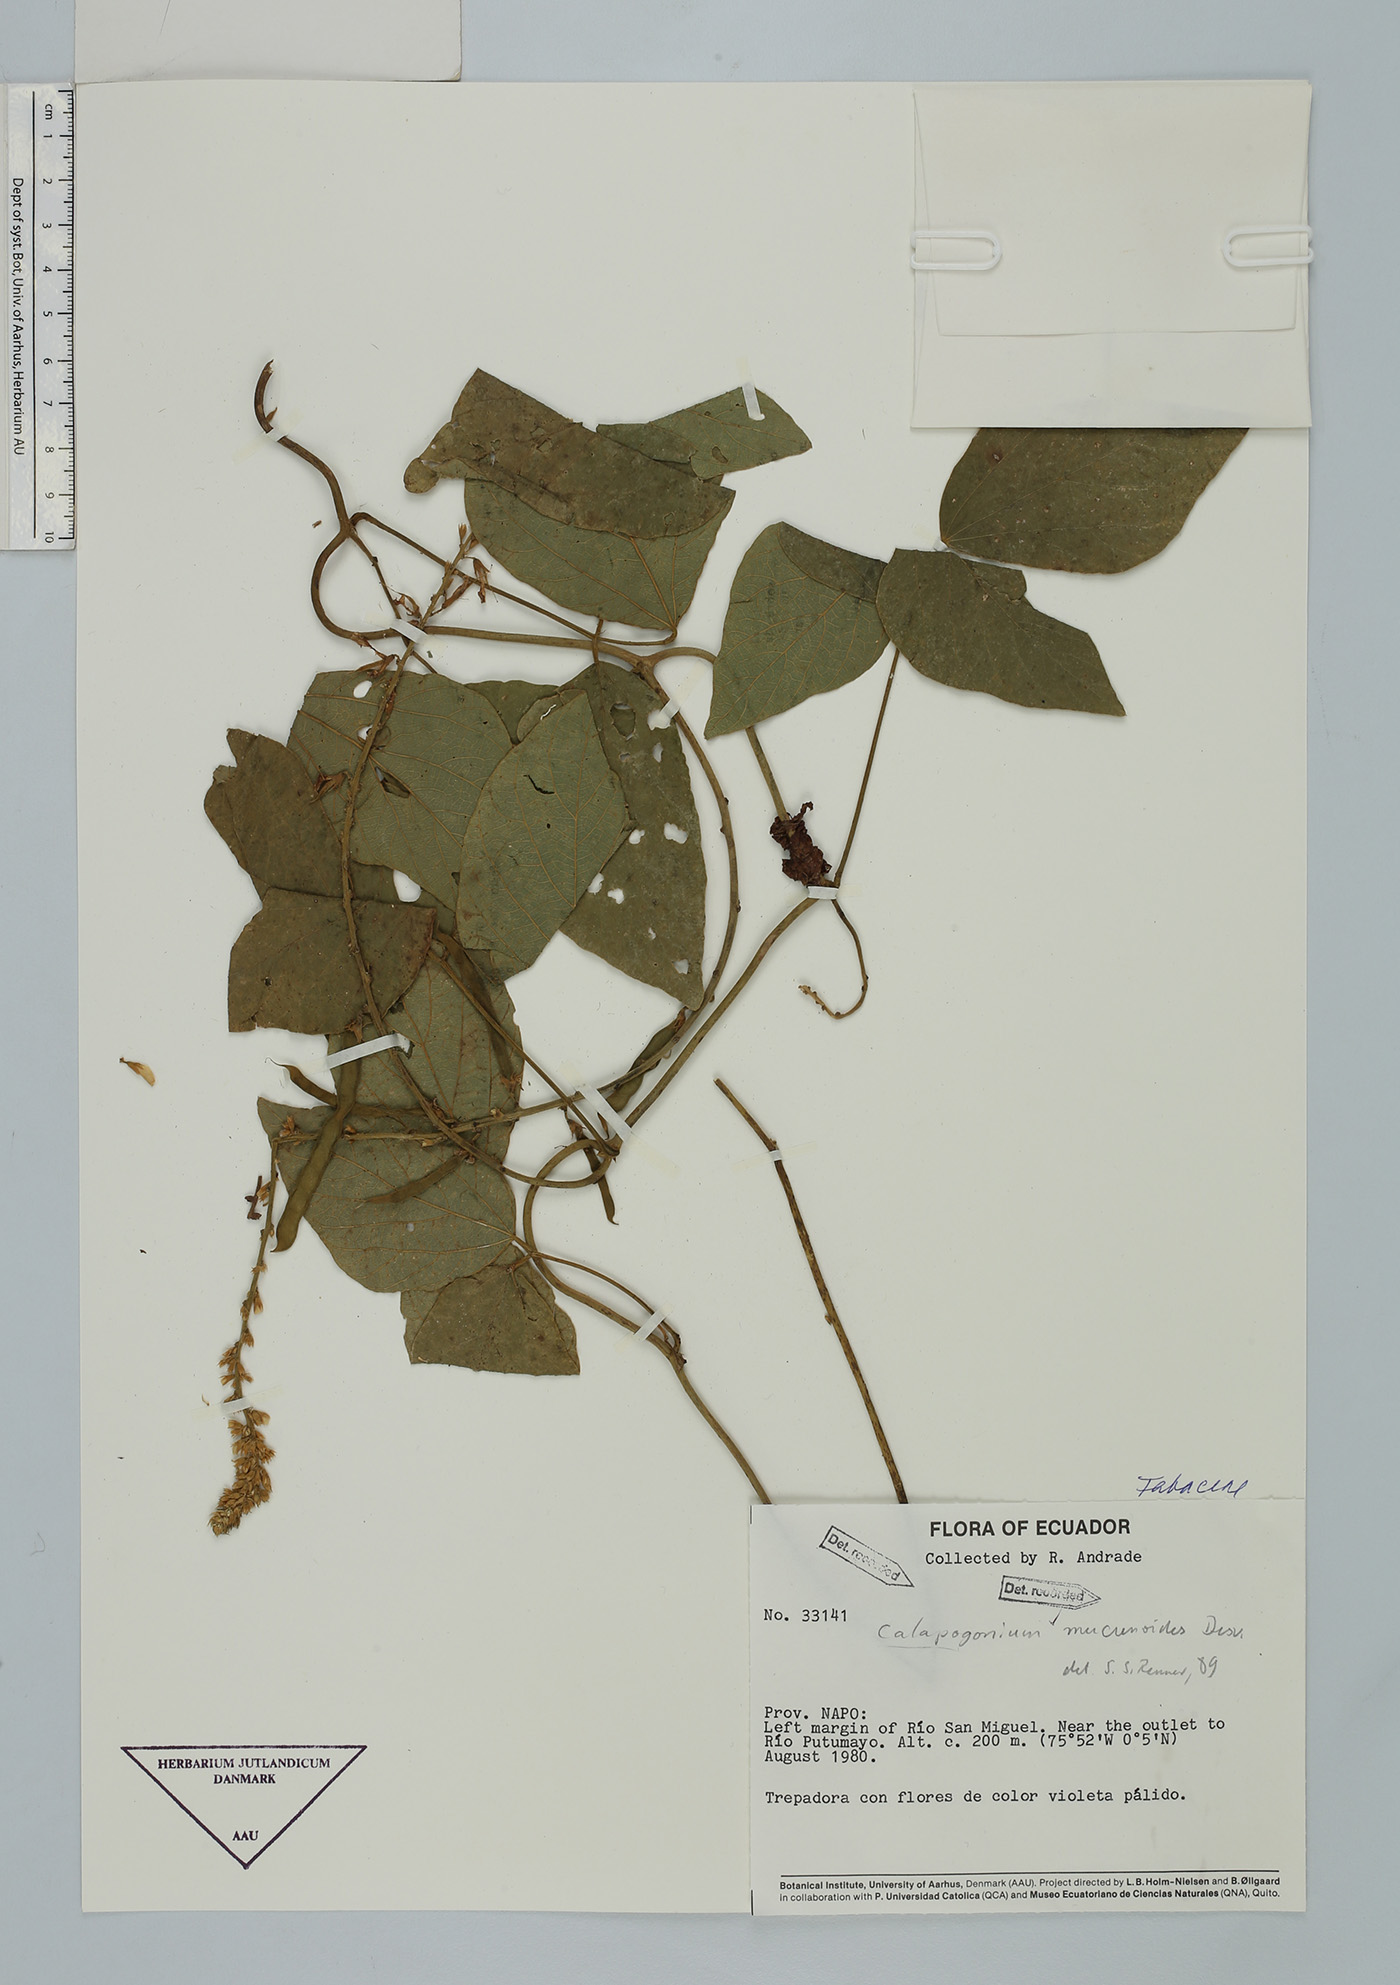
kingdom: Plantae
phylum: Tracheophyta
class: Magnoliopsida
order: Fabales
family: Fabaceae
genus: Calopogonium
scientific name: Calopogonium caeruleum
